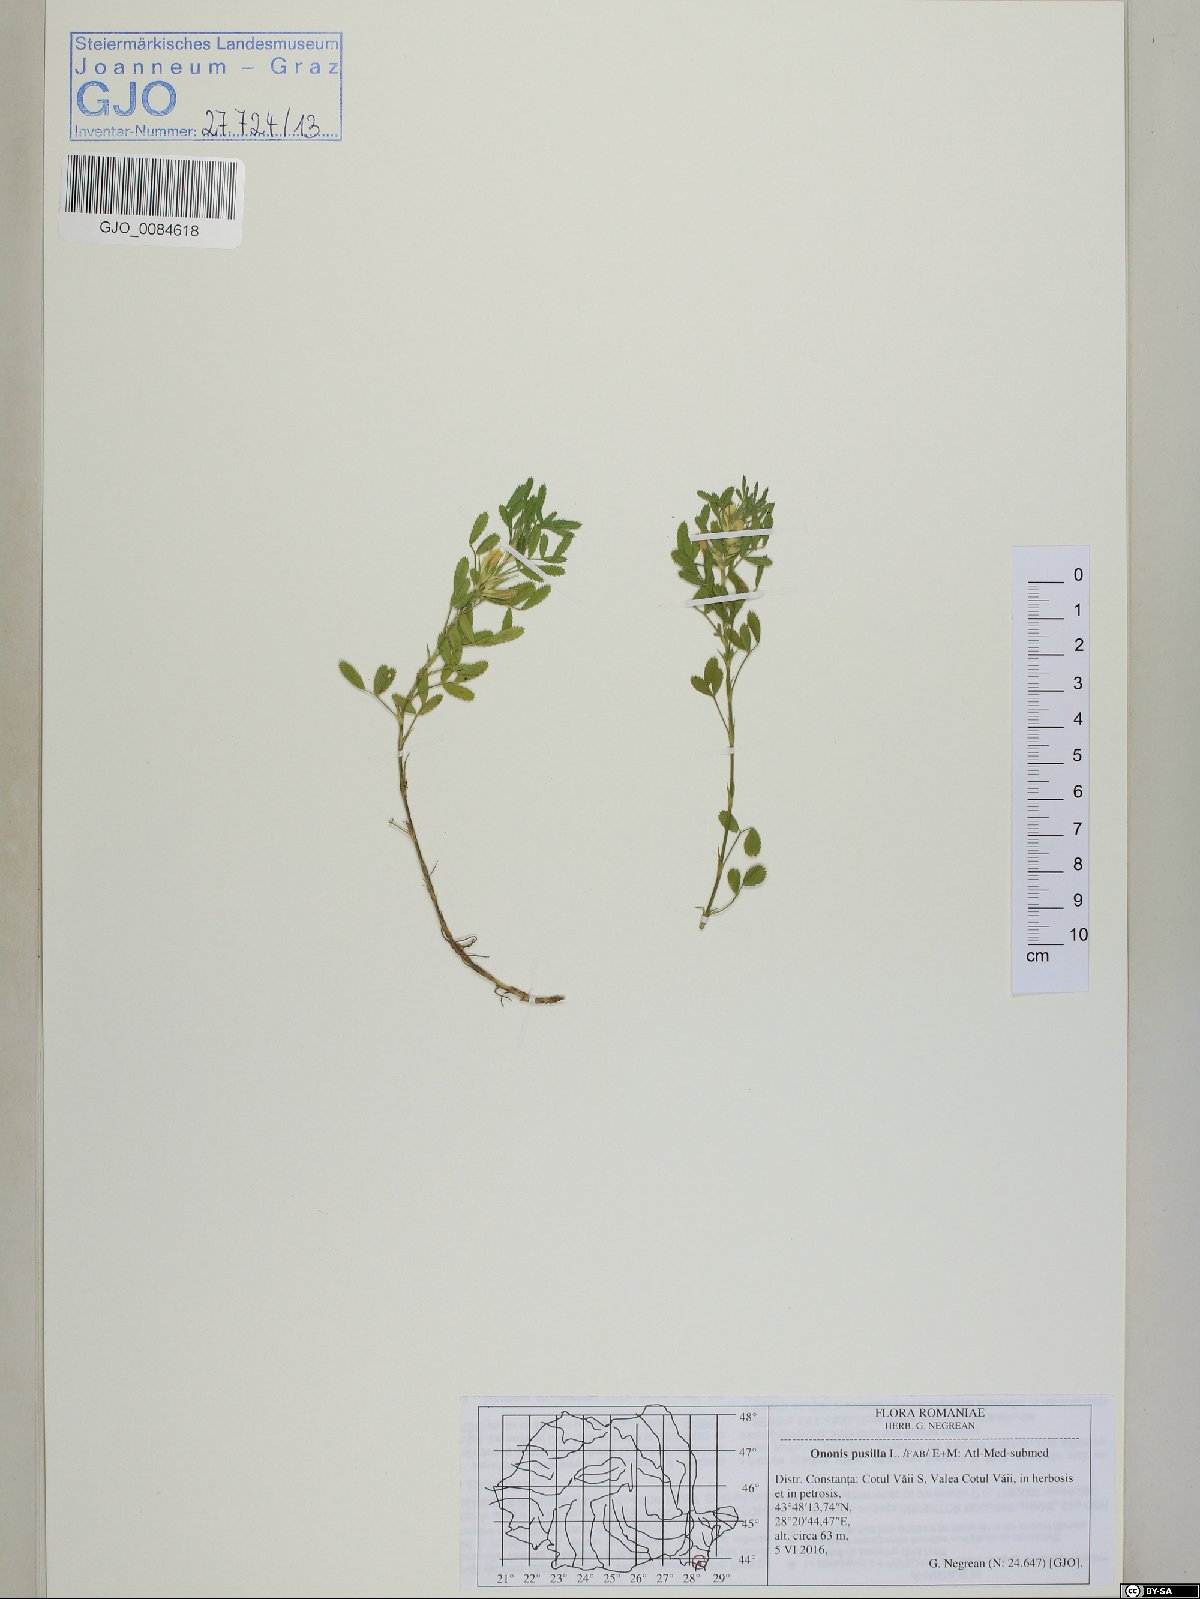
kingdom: Plantae
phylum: Tracheophyta
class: Magnoliopsida
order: Fabales
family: Fabaceae
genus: Ononis
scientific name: Ononis pusilla
